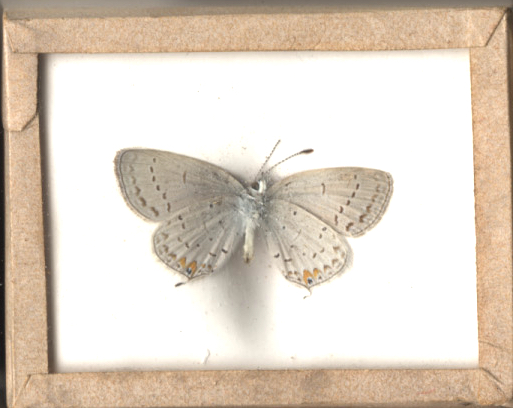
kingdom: Animalia
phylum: Arthropoda
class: Insecta
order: Lepidoptera
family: Lycaenidae
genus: Elkalyce
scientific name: Elkalyce comyntas
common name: Eastern Tailed Blue
